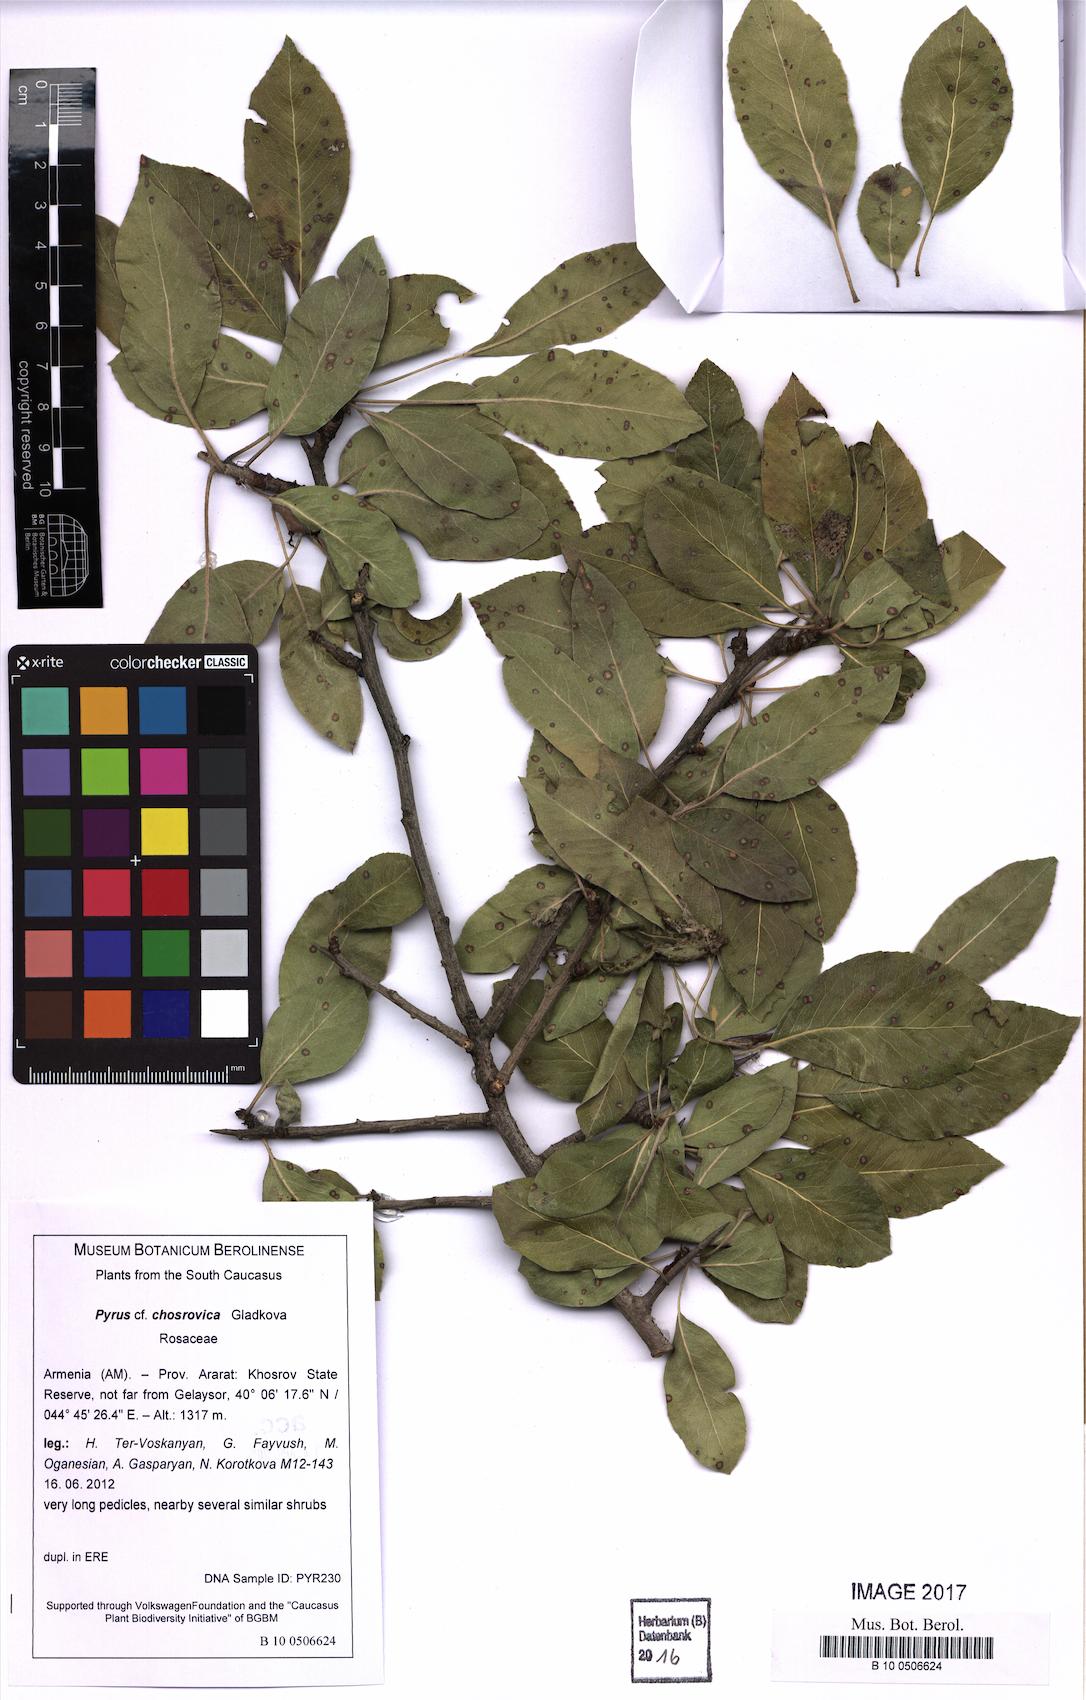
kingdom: Plantae
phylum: Tracheophyta
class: Magnoliopsida
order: Rosales
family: Rosaceae
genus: Pyrus
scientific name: Pyrus chosrovica
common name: Khosrovian pear
